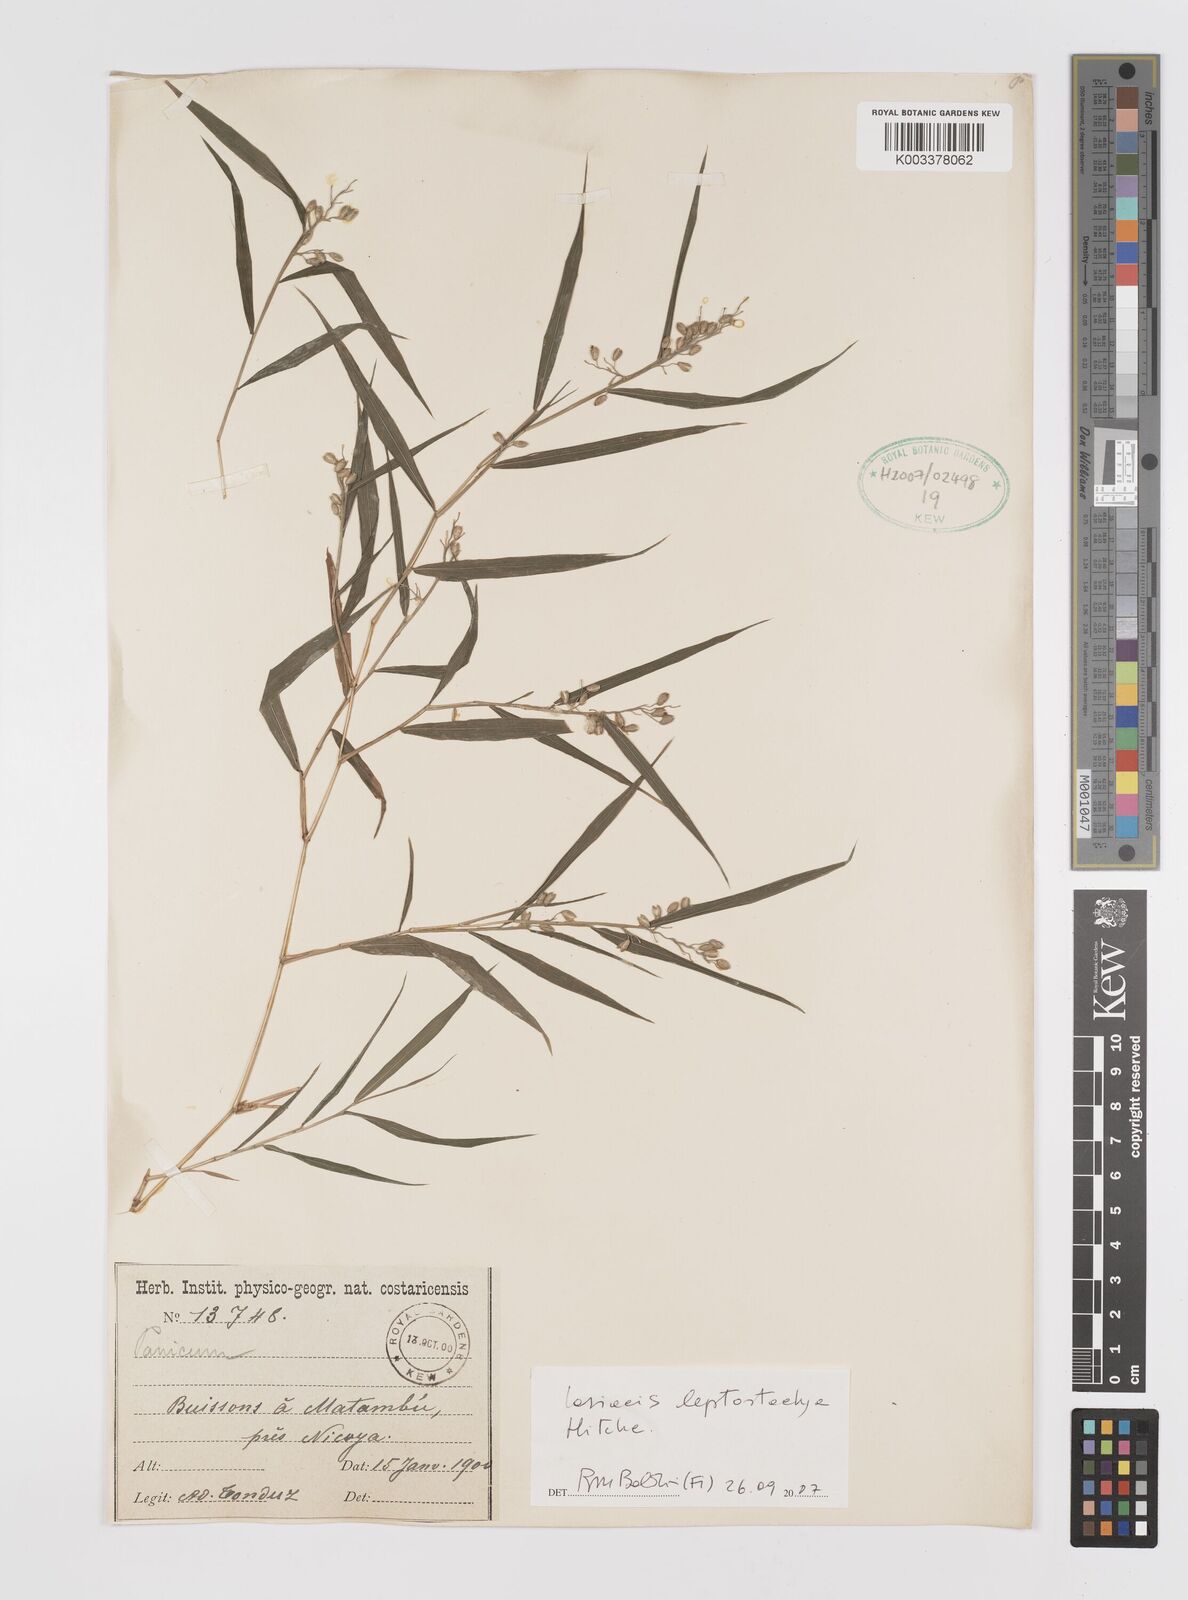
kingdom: Plantae
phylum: Tracheophyta
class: Liliopsida
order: Poales
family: Poaceae
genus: Lasiacis
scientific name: Lasiacis divaricata
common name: Smallcane
